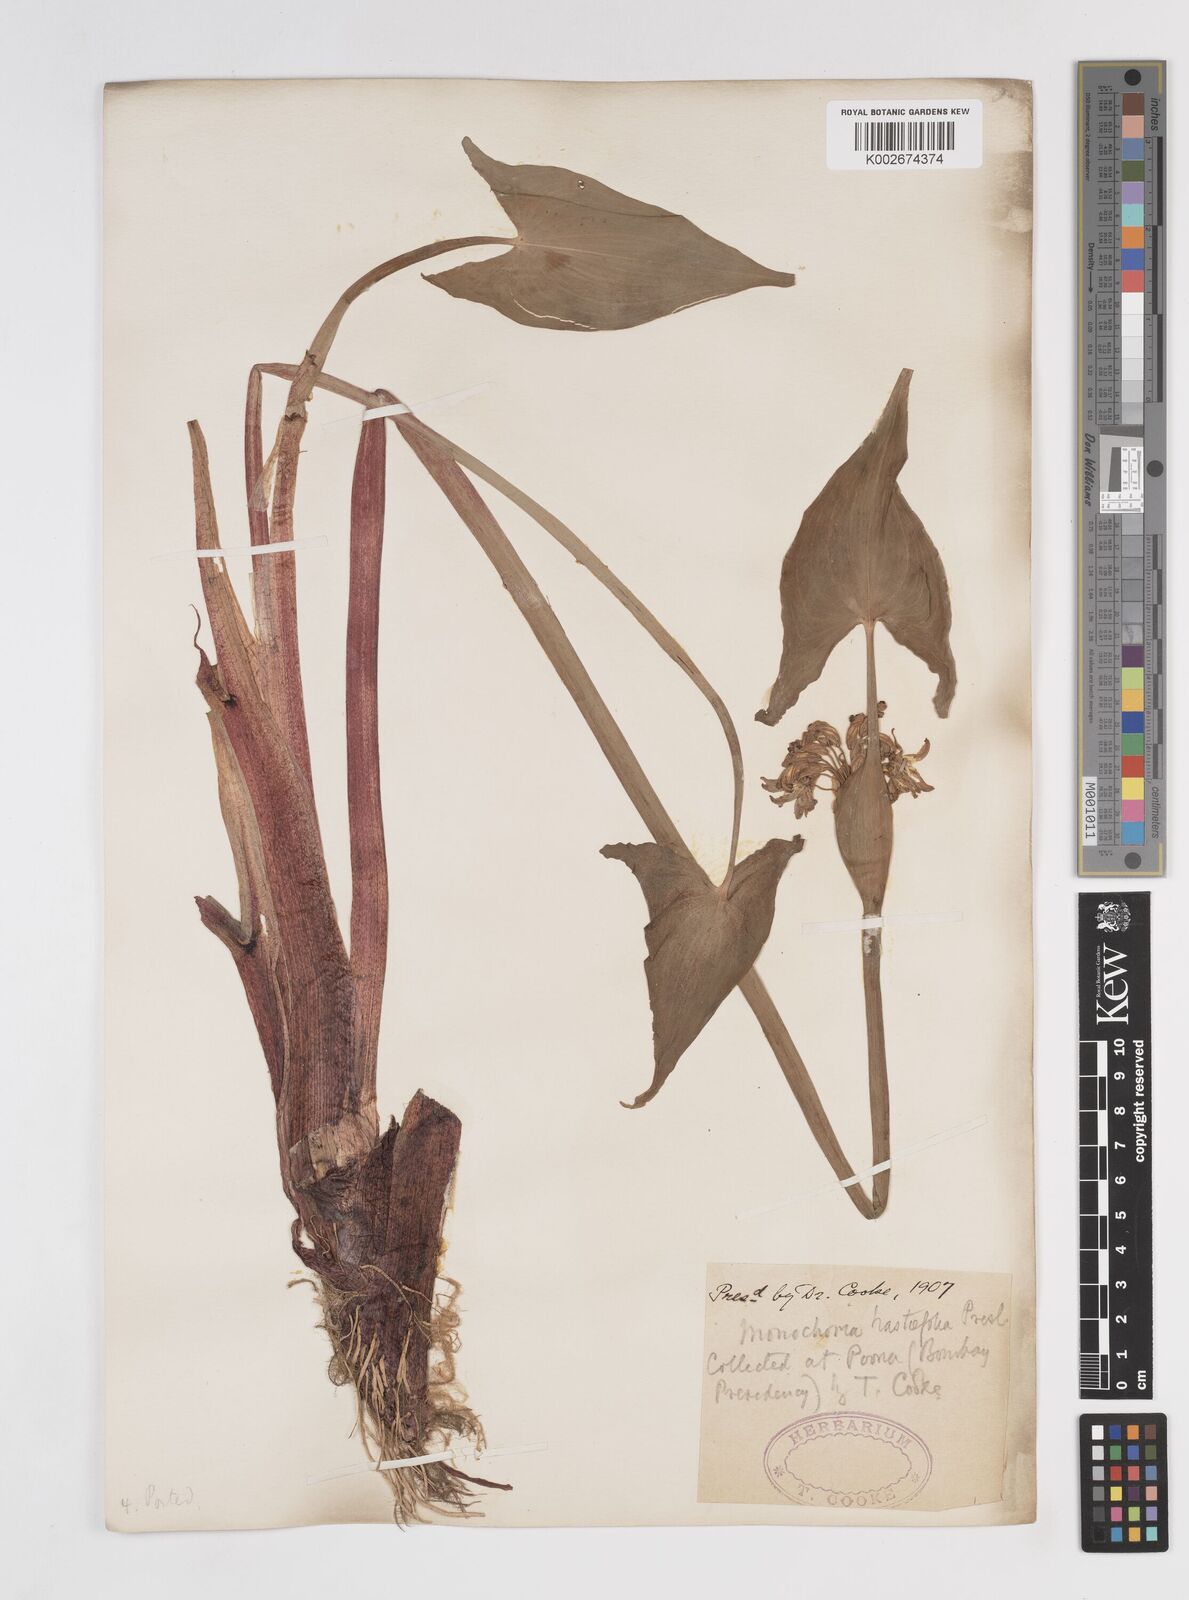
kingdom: Plantae
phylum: Tracheophyta
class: Liliopsida
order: Commelinales
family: Pontederiaceae
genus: Pontederia
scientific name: Pontederia hastata
